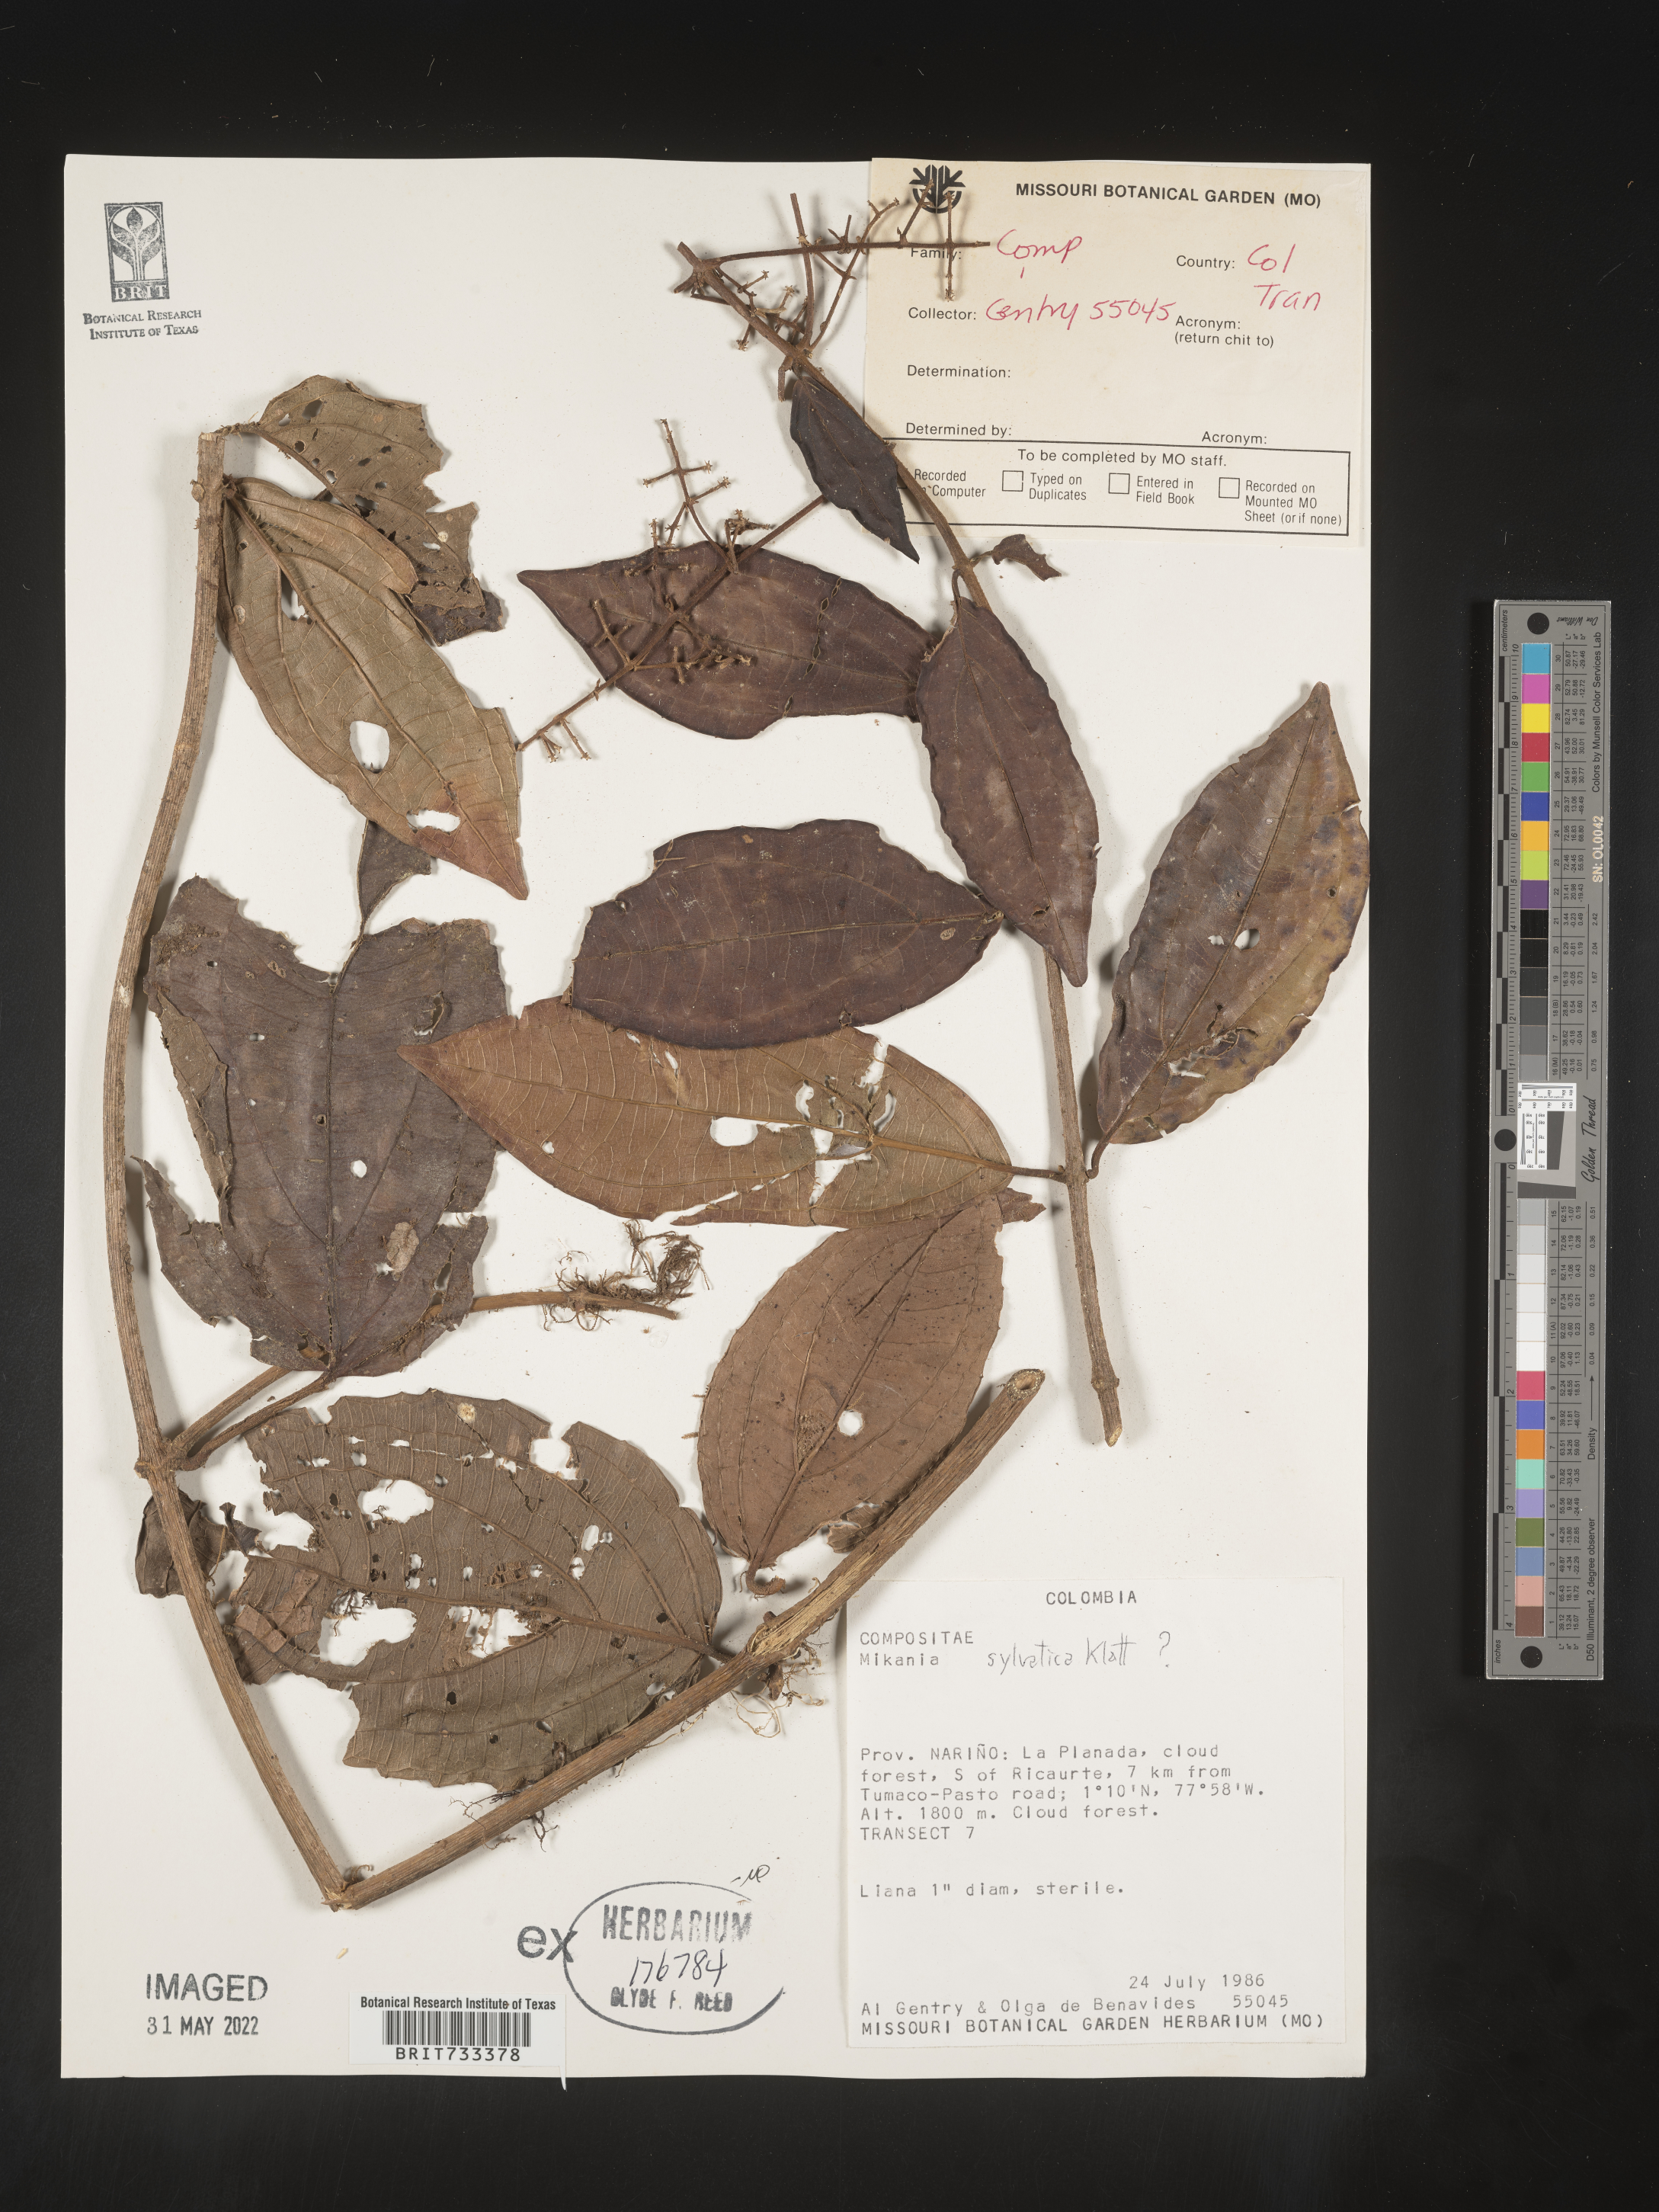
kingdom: Plantae
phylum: Tracheophyta
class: Magnoliopsida
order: Asterales
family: Asteraceae
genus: Mikania
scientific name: Mikania
